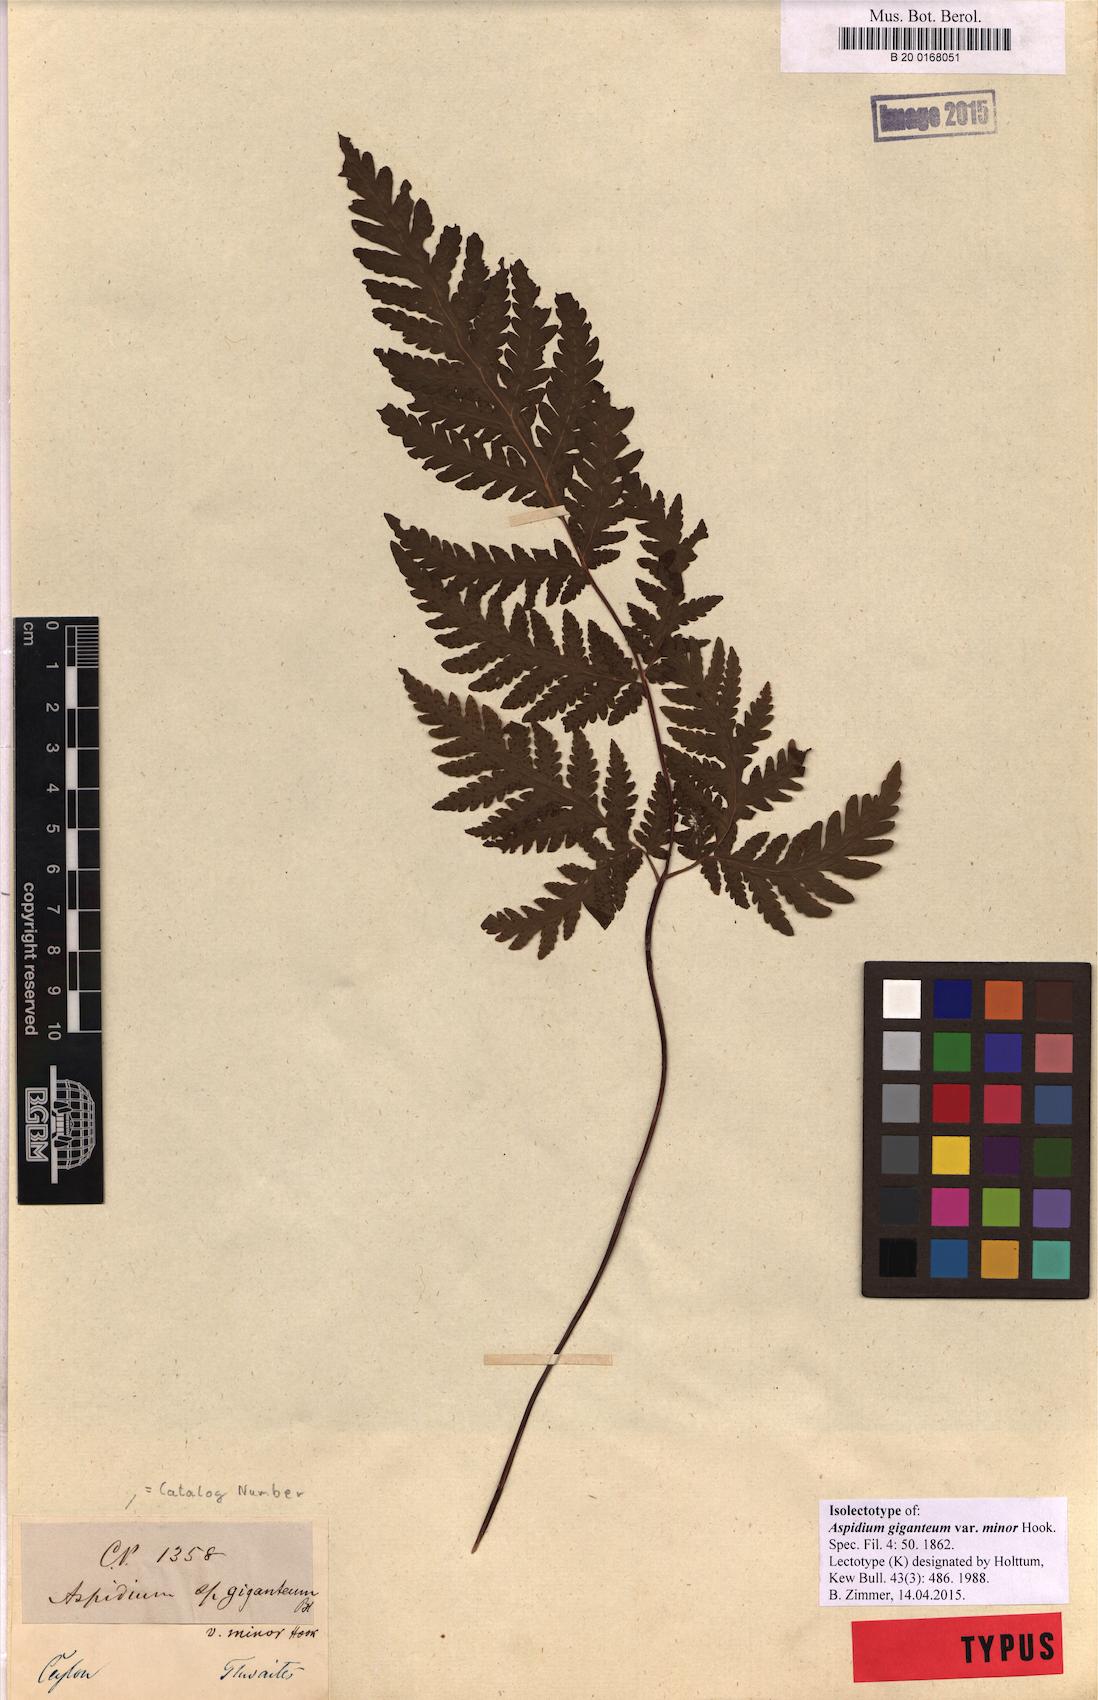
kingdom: Plantae
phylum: Tracheophyta
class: Polypodiopsida
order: Polypodiales
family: Tectariaceae
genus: Tectaria
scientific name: Tectaria membranacea
